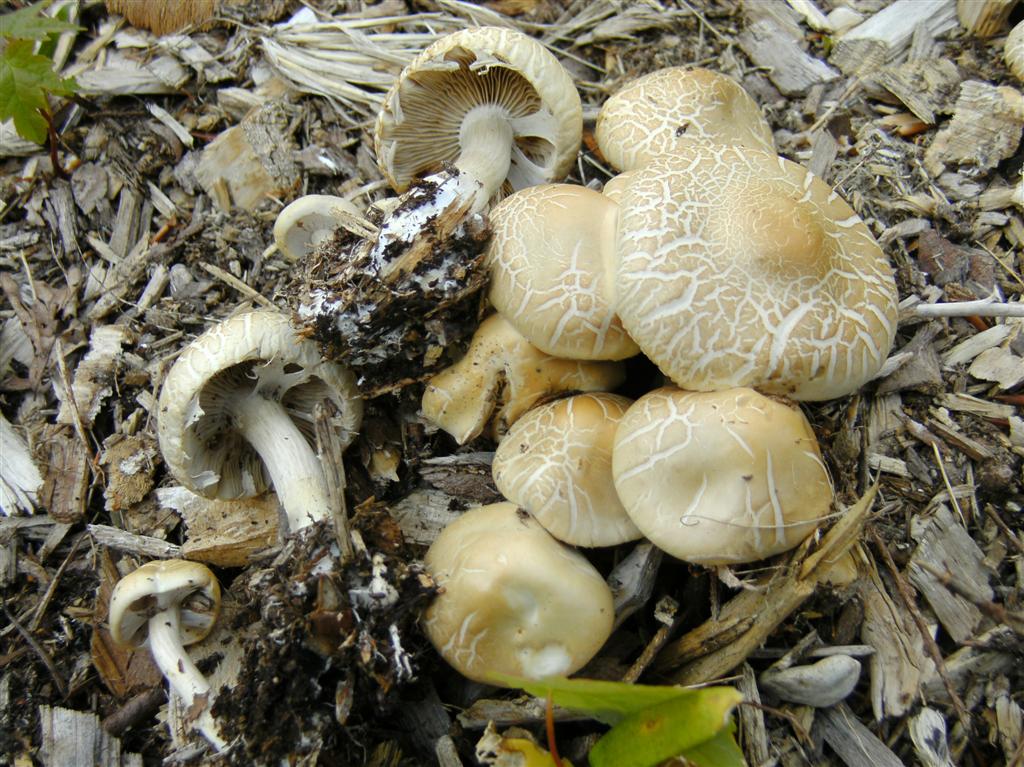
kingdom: Fungi
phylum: Basidiomycota
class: Agaricomycetes
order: Agaricales
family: Strophariaceae
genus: Agrocybe
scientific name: Agrocybe praecox
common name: tidlig agerhat
